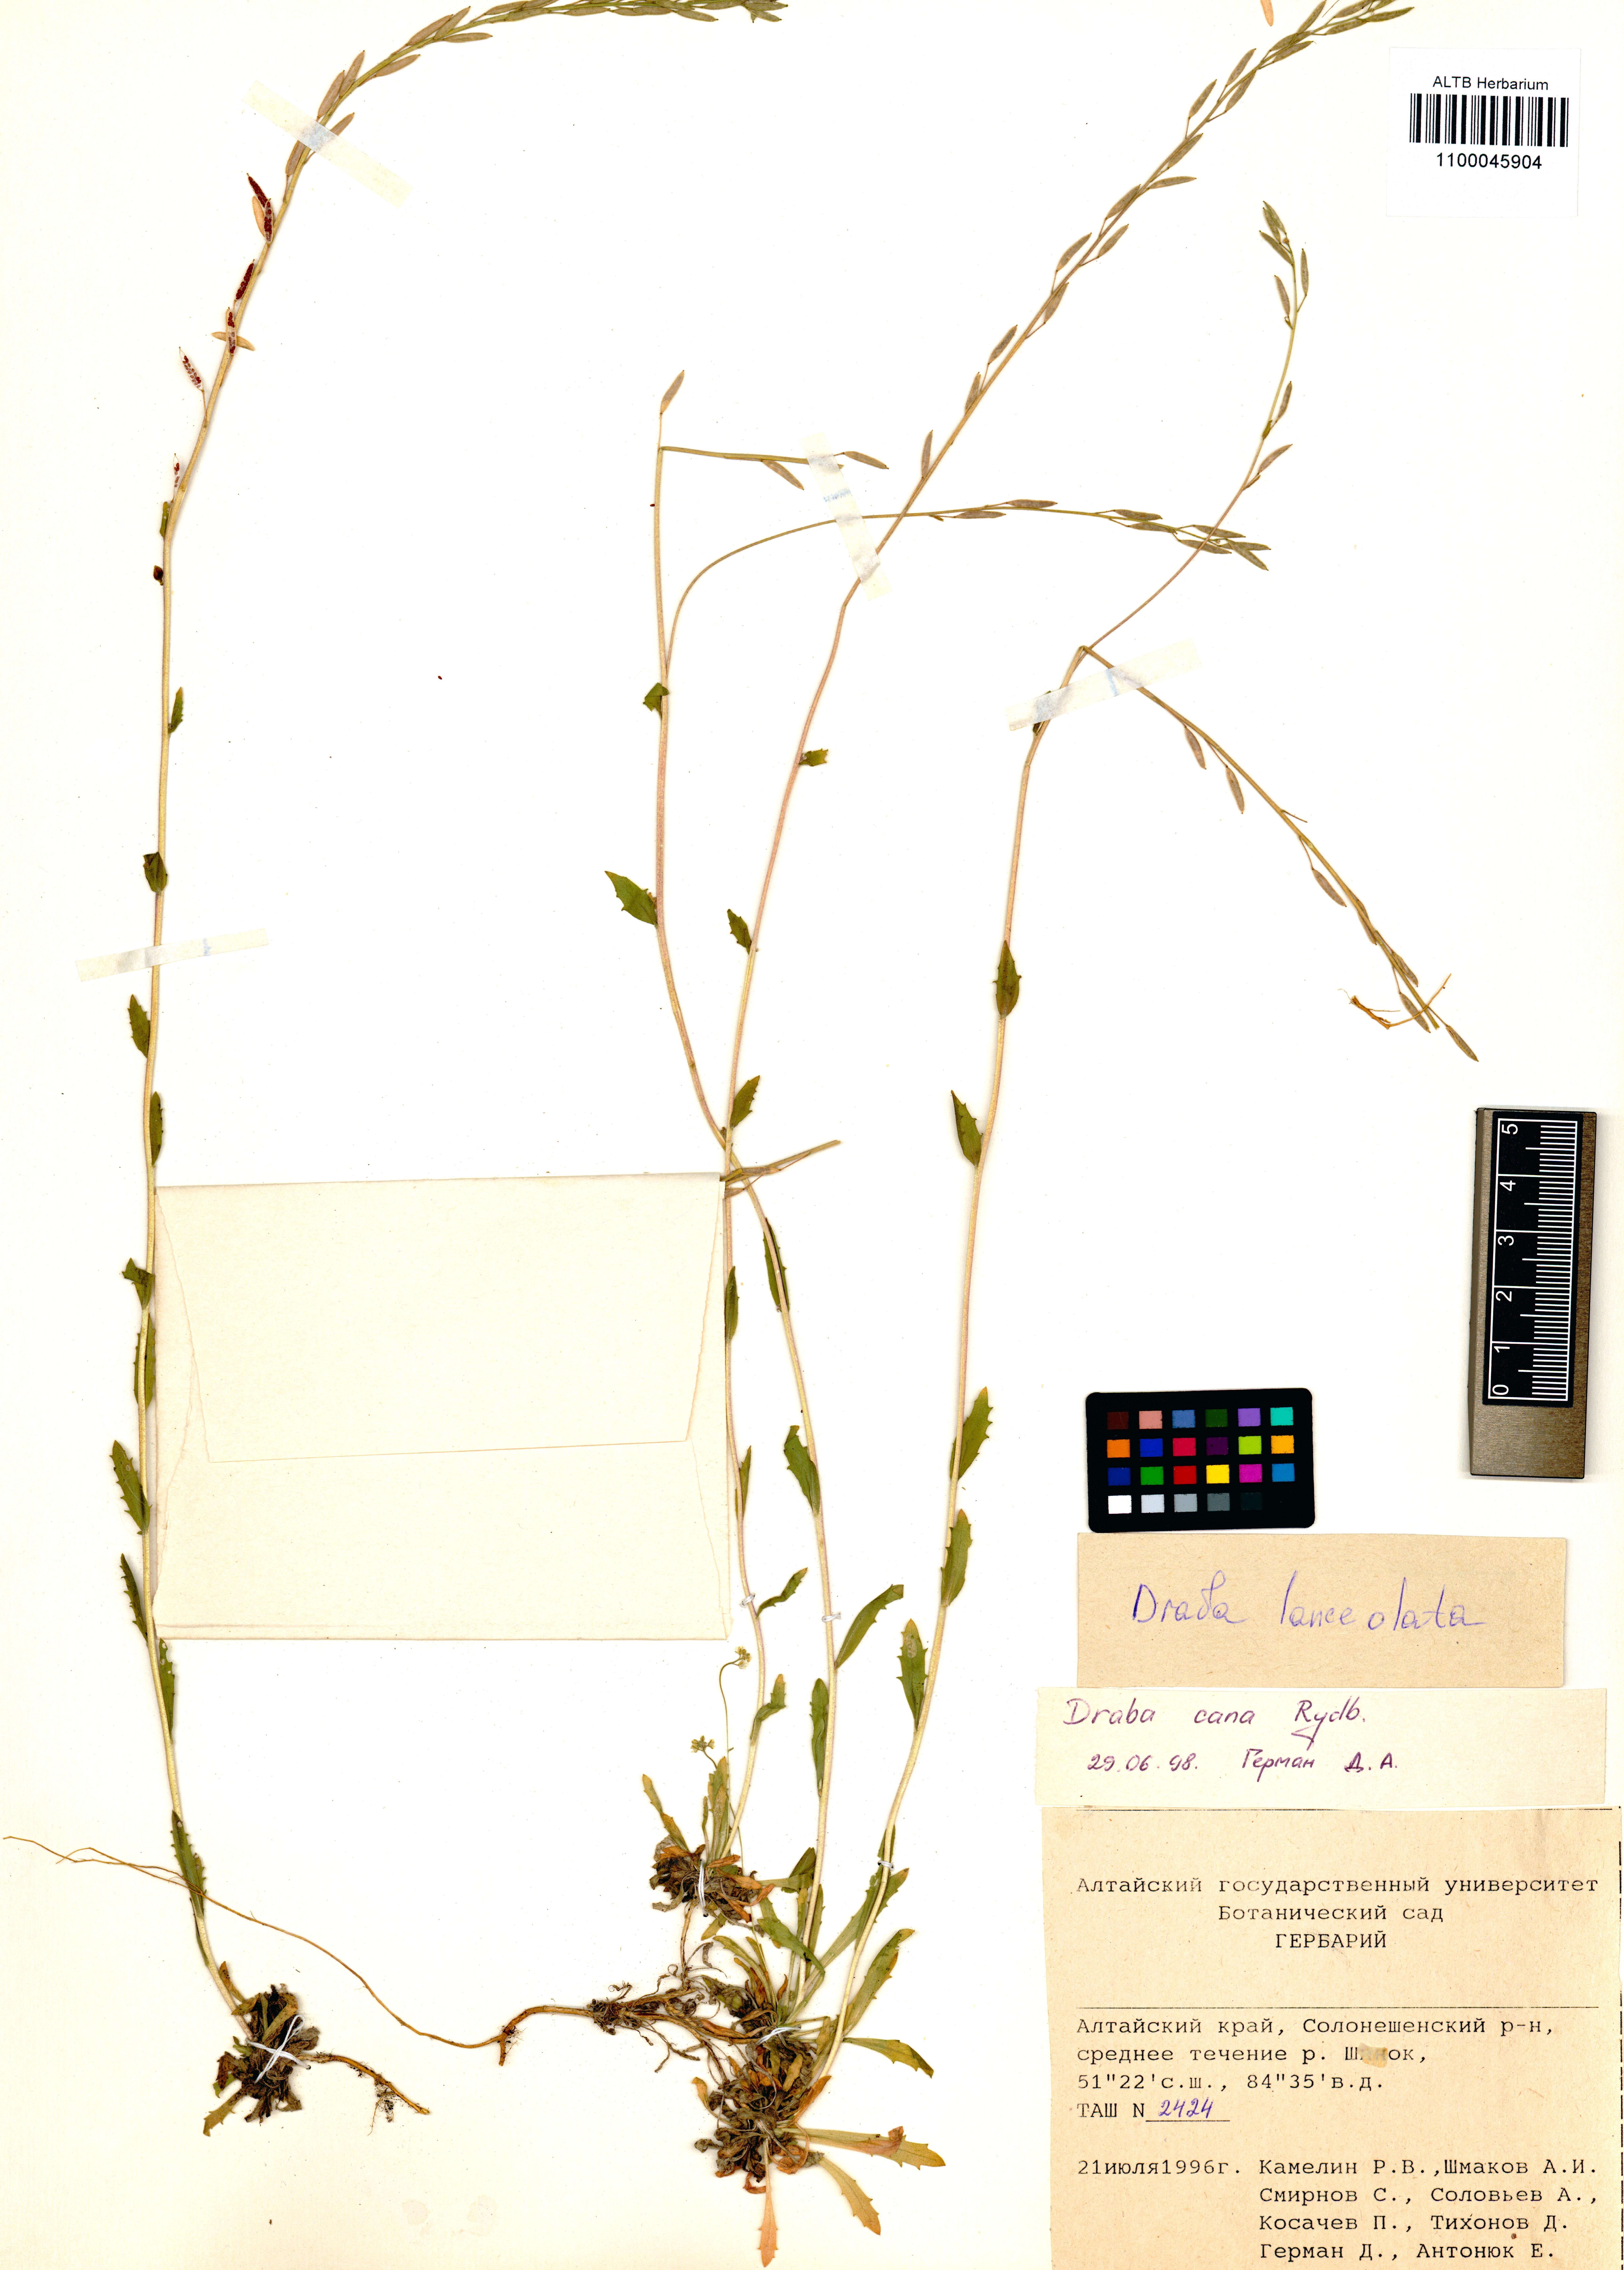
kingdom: Plantae
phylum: Tracheophyta
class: Magnoliopsida
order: Brassicales
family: Brassicaceae
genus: Draba
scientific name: Draba lanceolata
